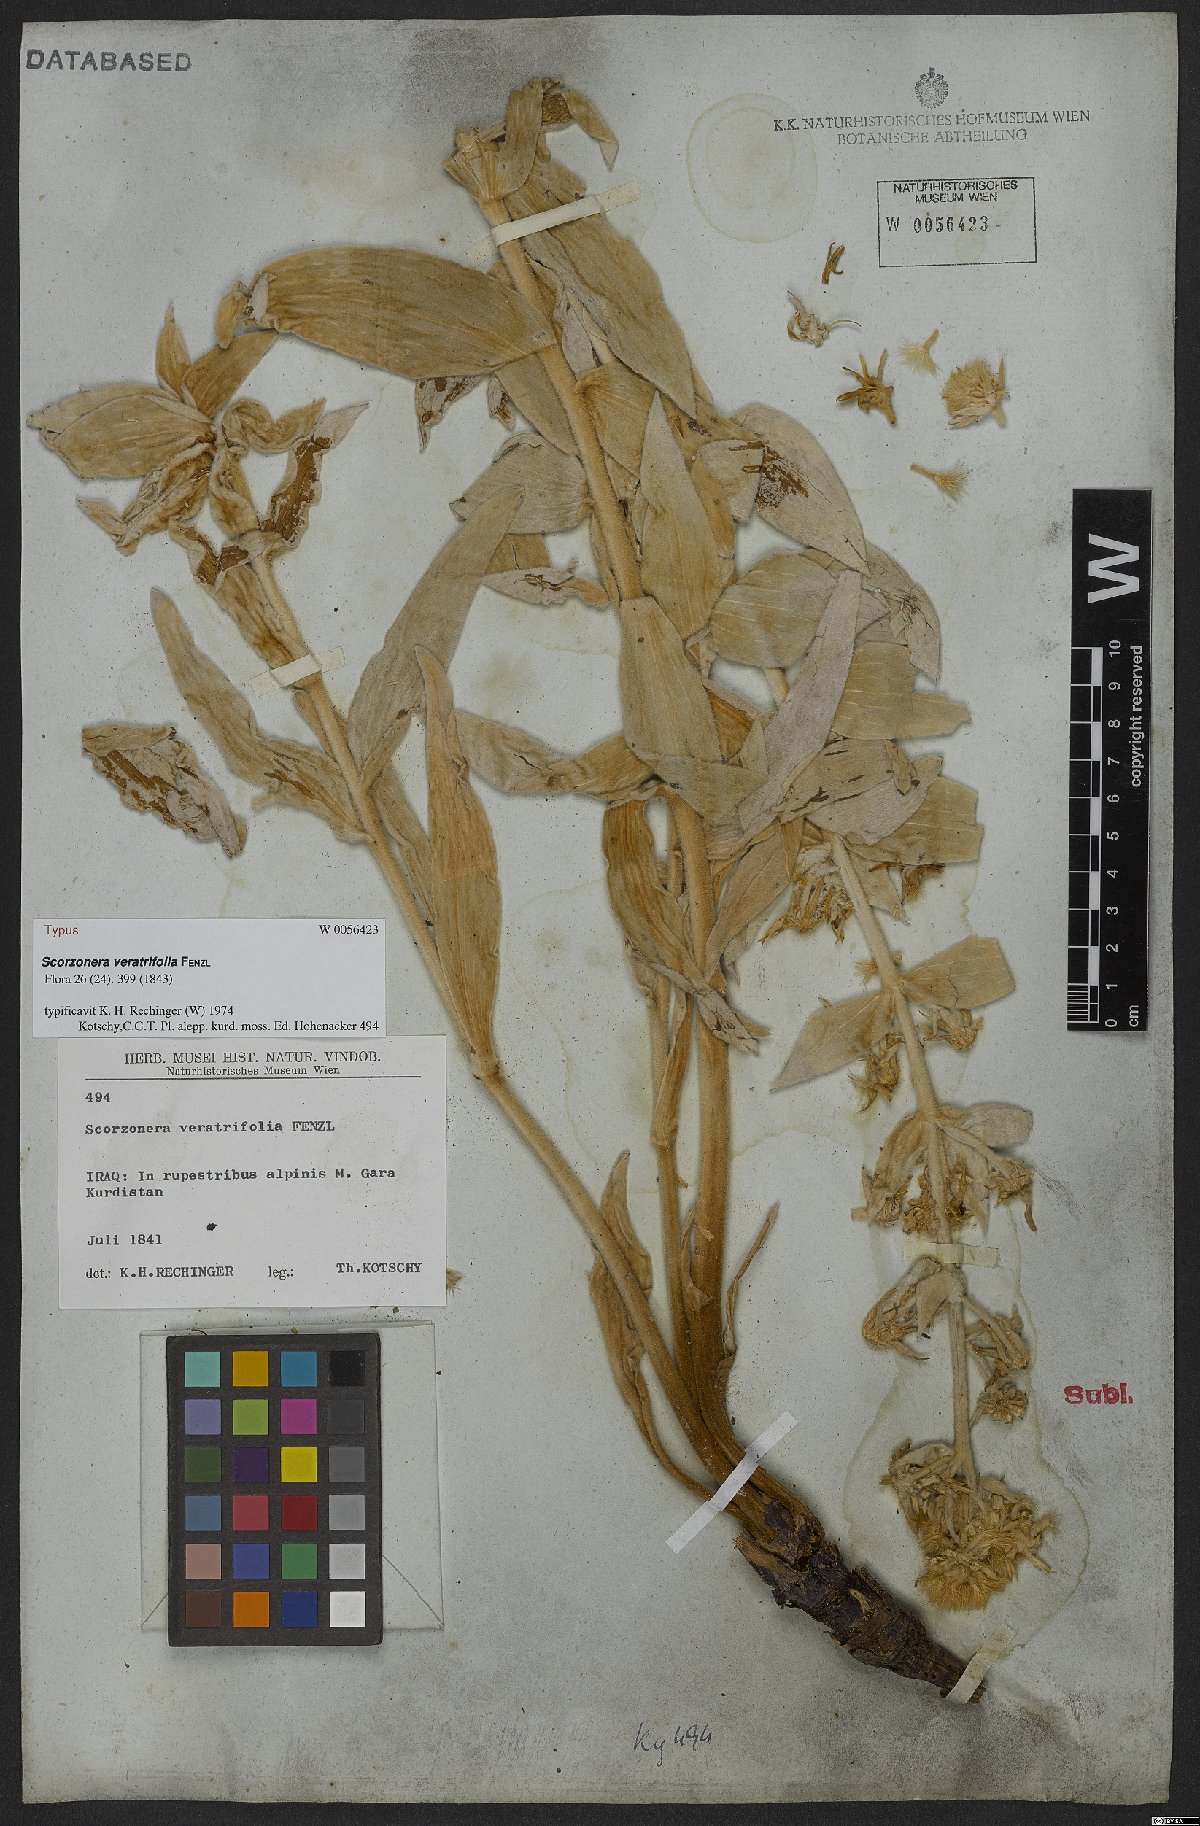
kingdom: Plantae
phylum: Tracheophyta
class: Magnoliopsida
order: Asterales
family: Asteraceae
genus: Guneria
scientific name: Guneria veratrifolia
